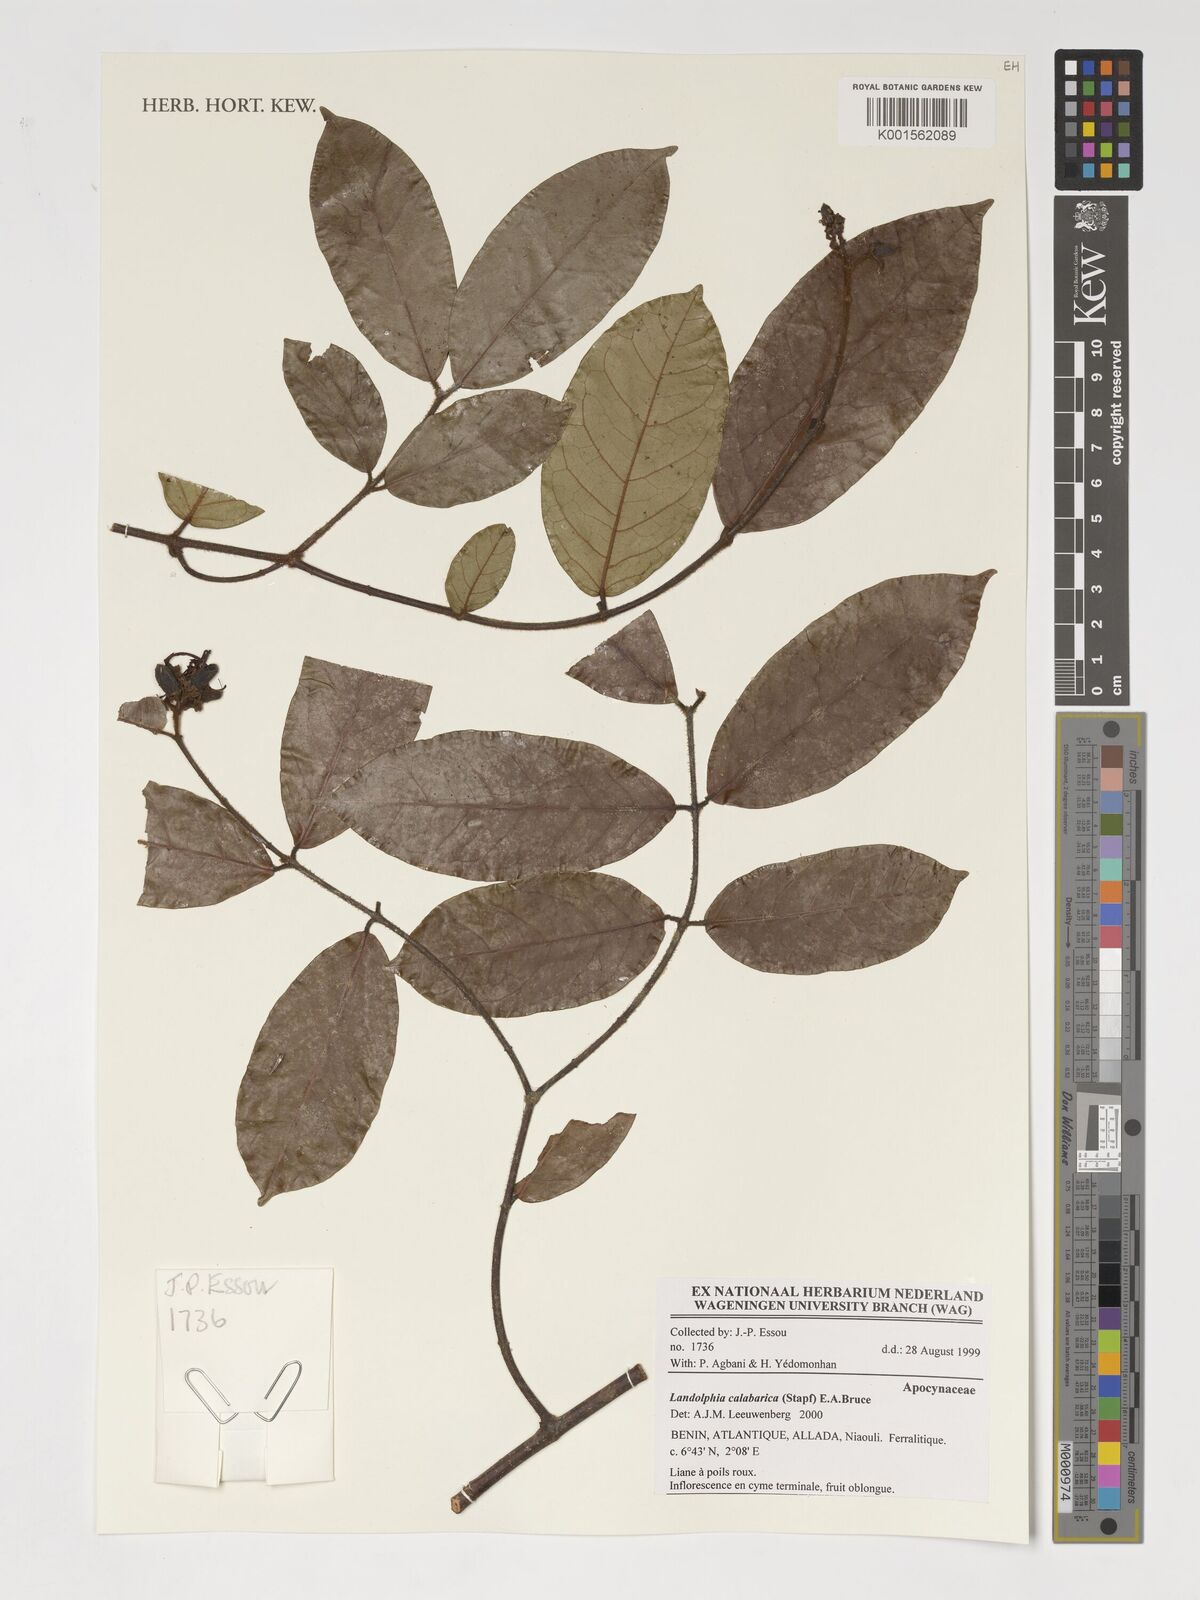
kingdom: Plantae
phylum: Tracheophyta
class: Magnoliopsida
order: Gentianales
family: Apocynaceae
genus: Landolphia
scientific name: Landolphia calabarica
